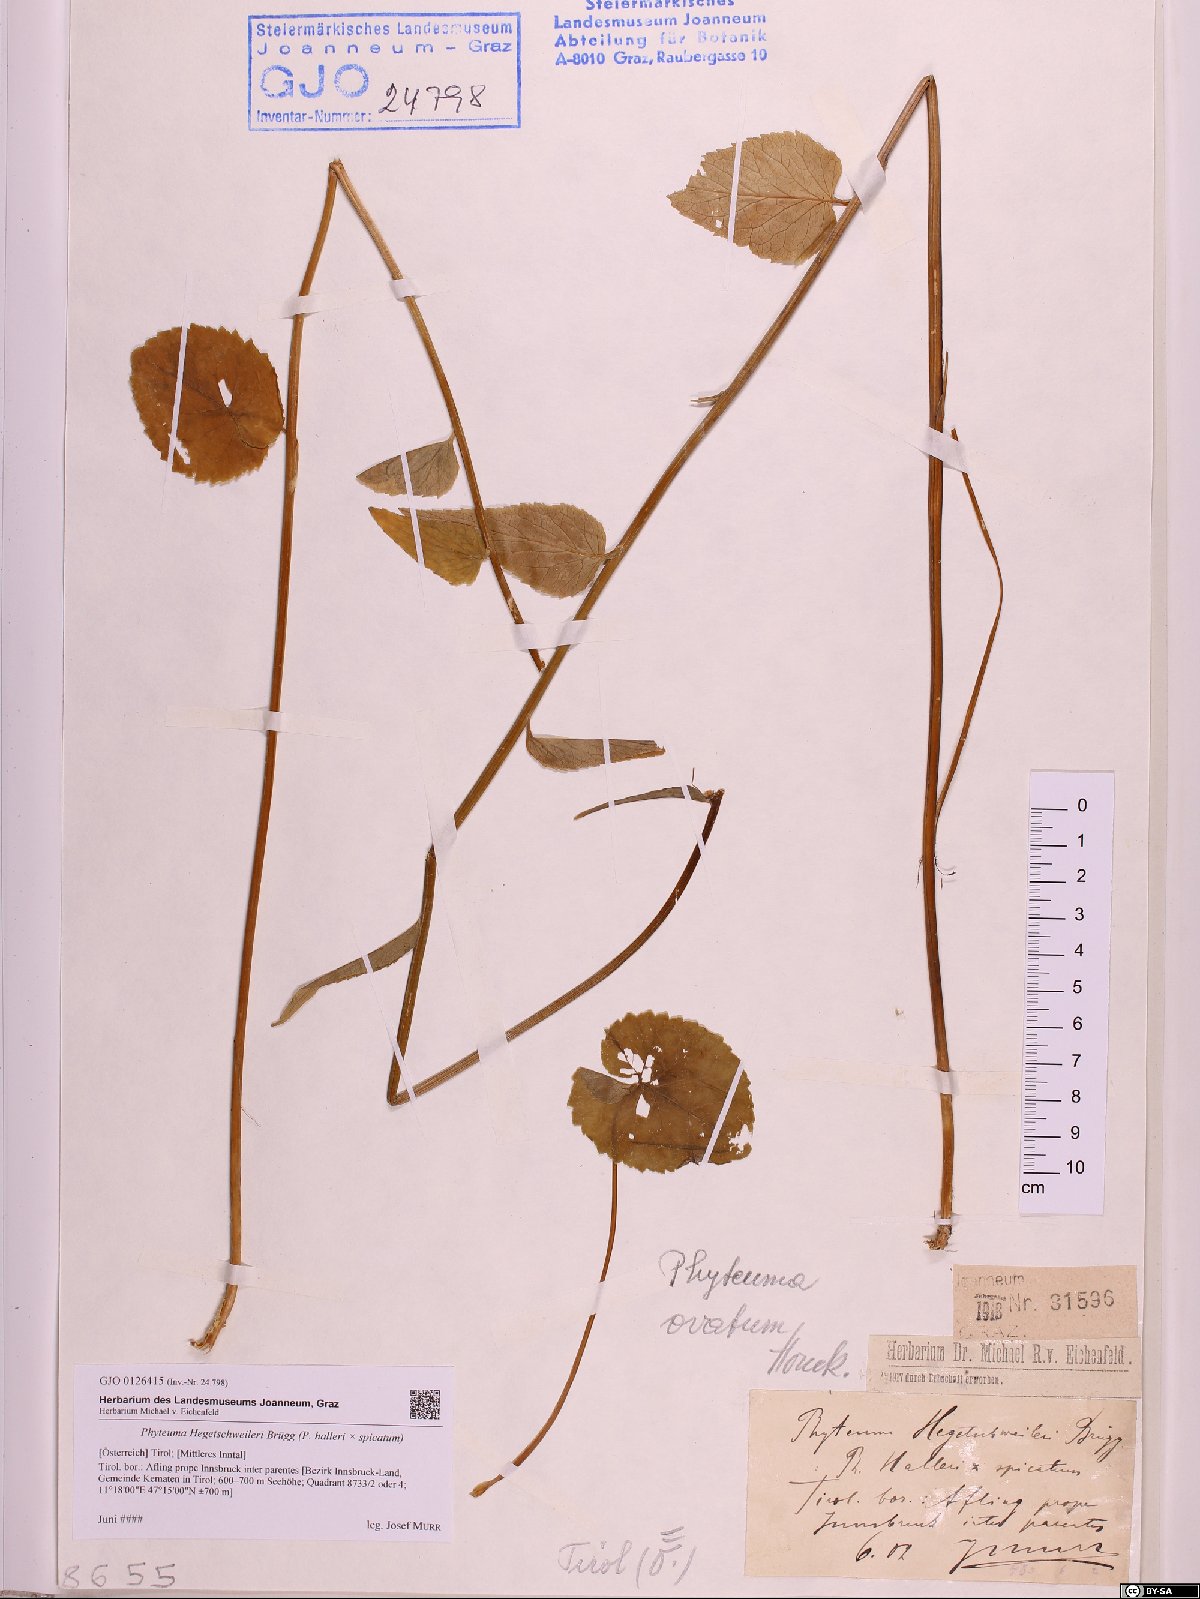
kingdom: Plantae
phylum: Tracheophyta
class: Magnoliopsida
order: Asterales
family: Campanulaceae
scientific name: Campanulaceae
